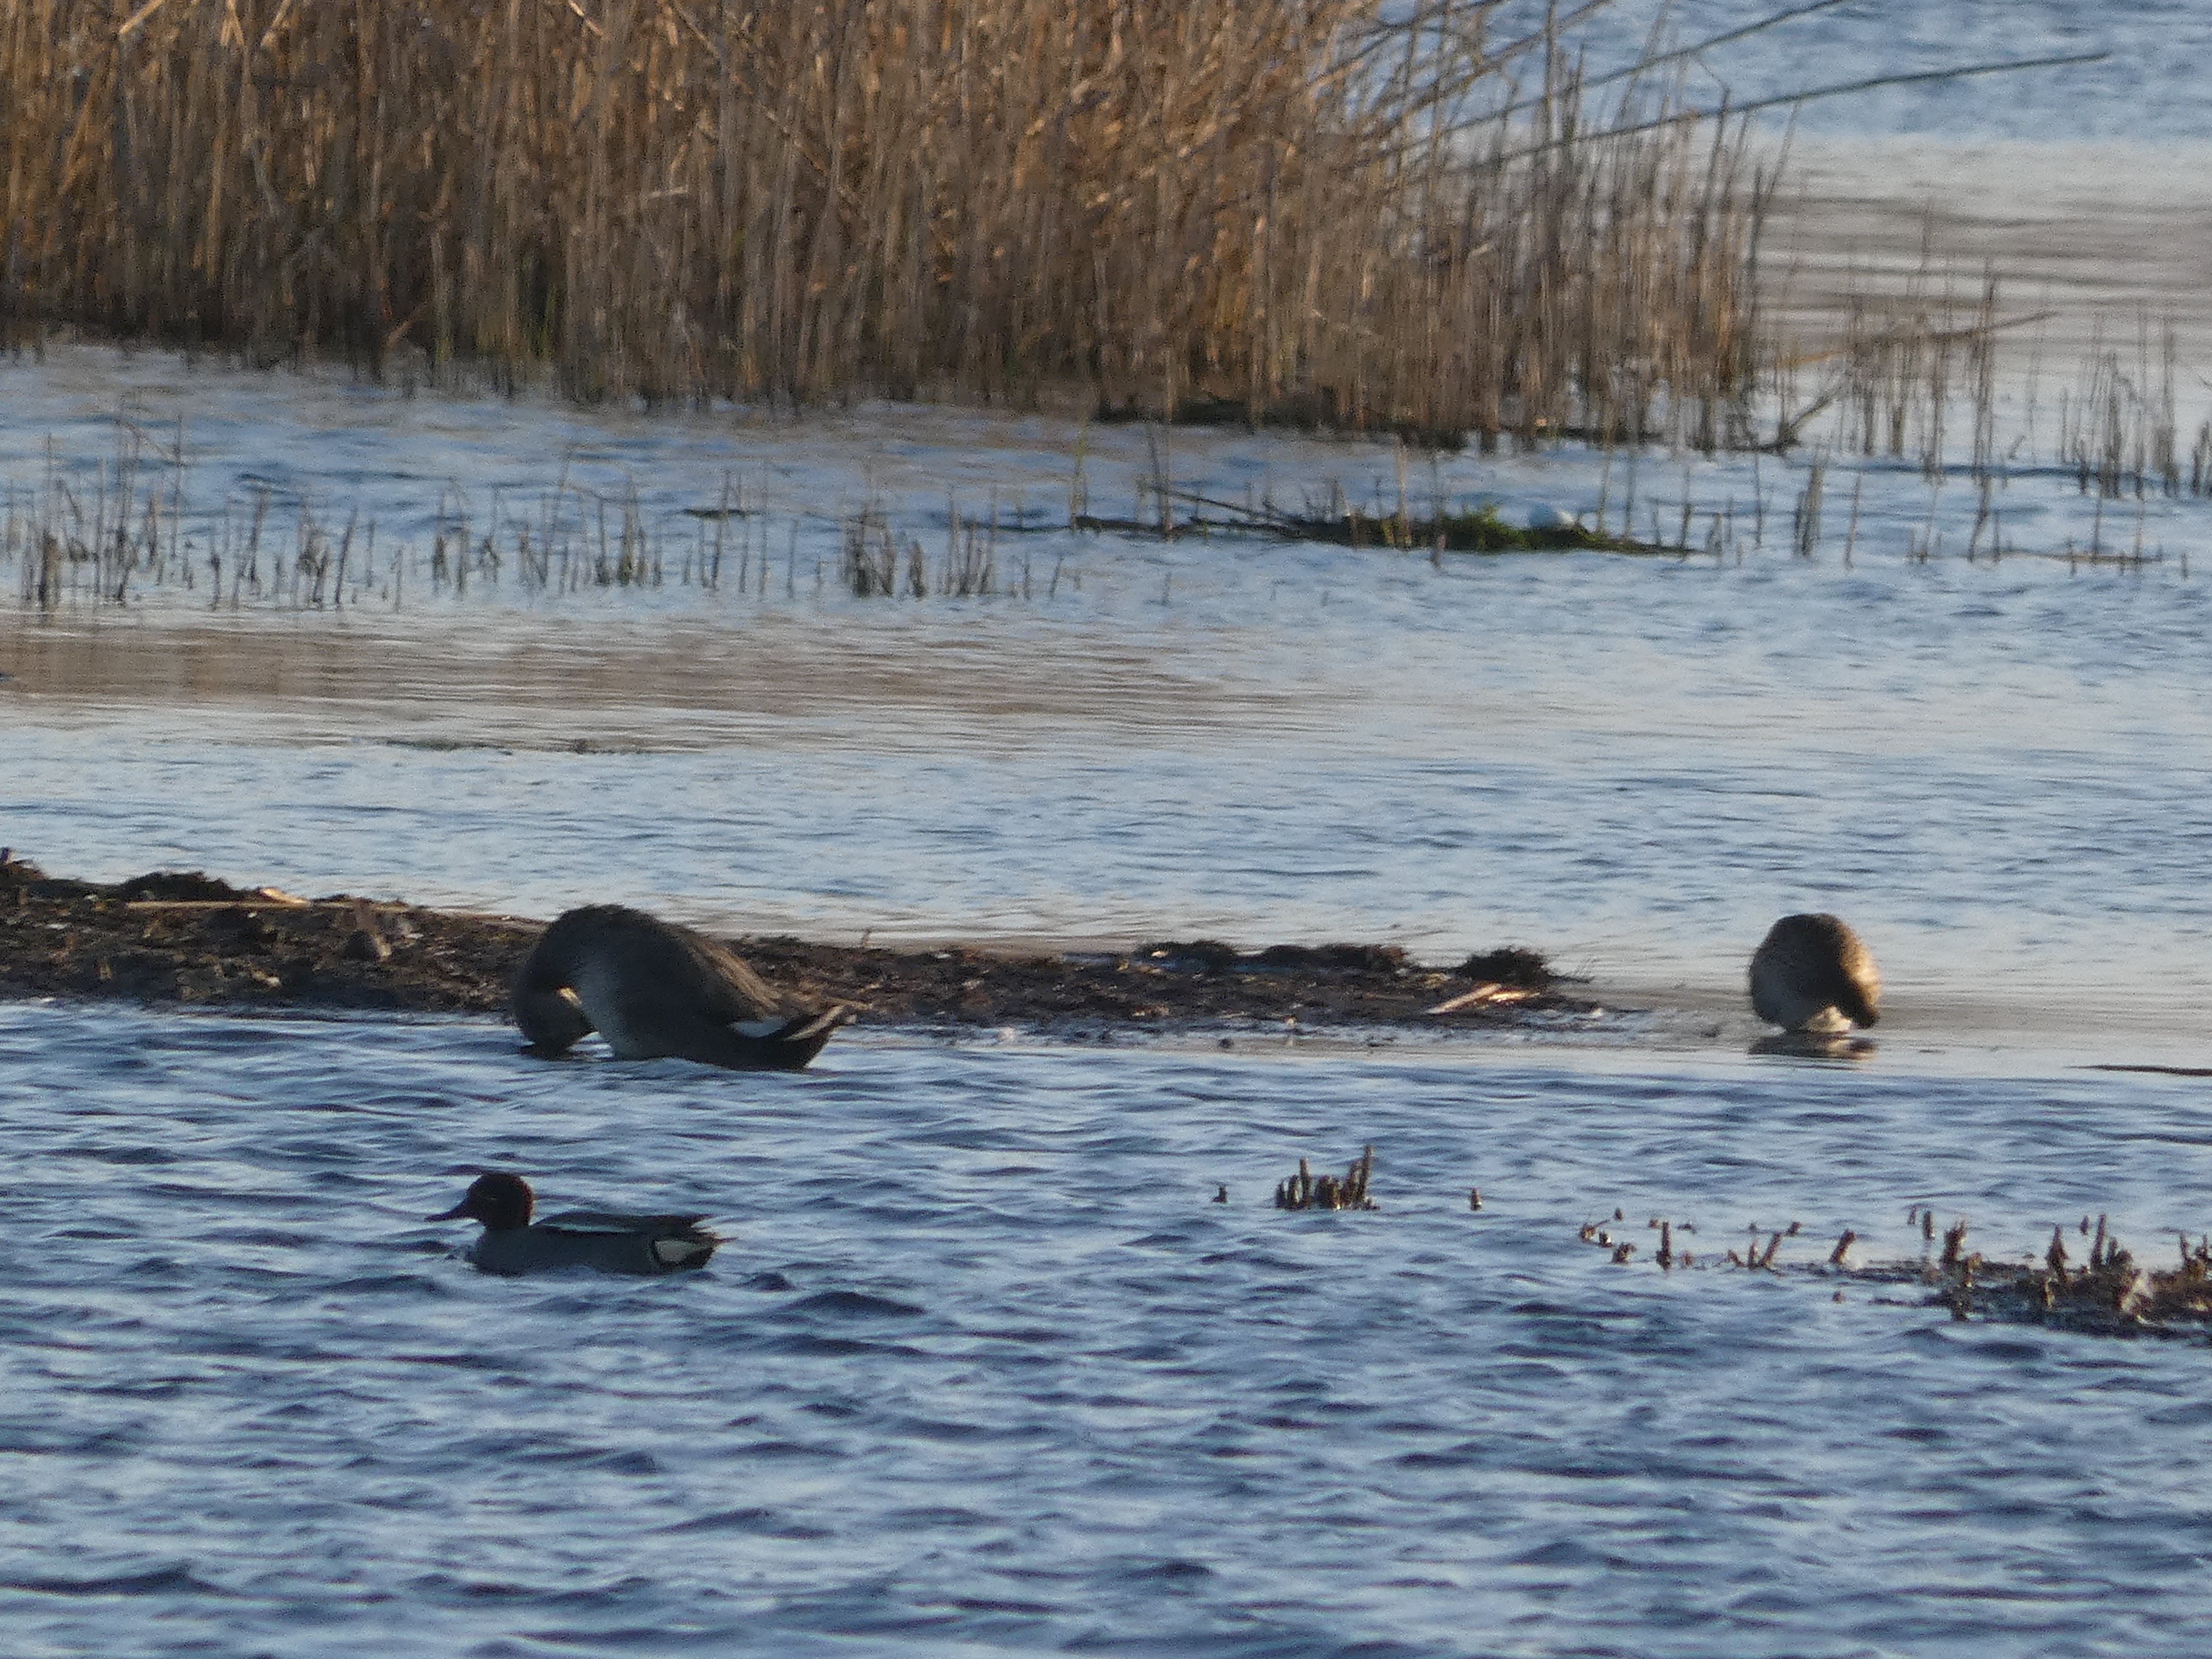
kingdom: Animalia
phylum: Chordata
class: Aves
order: Anseriformes
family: Anatidae
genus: Mareca
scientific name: Mareca strepera
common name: Knarand
